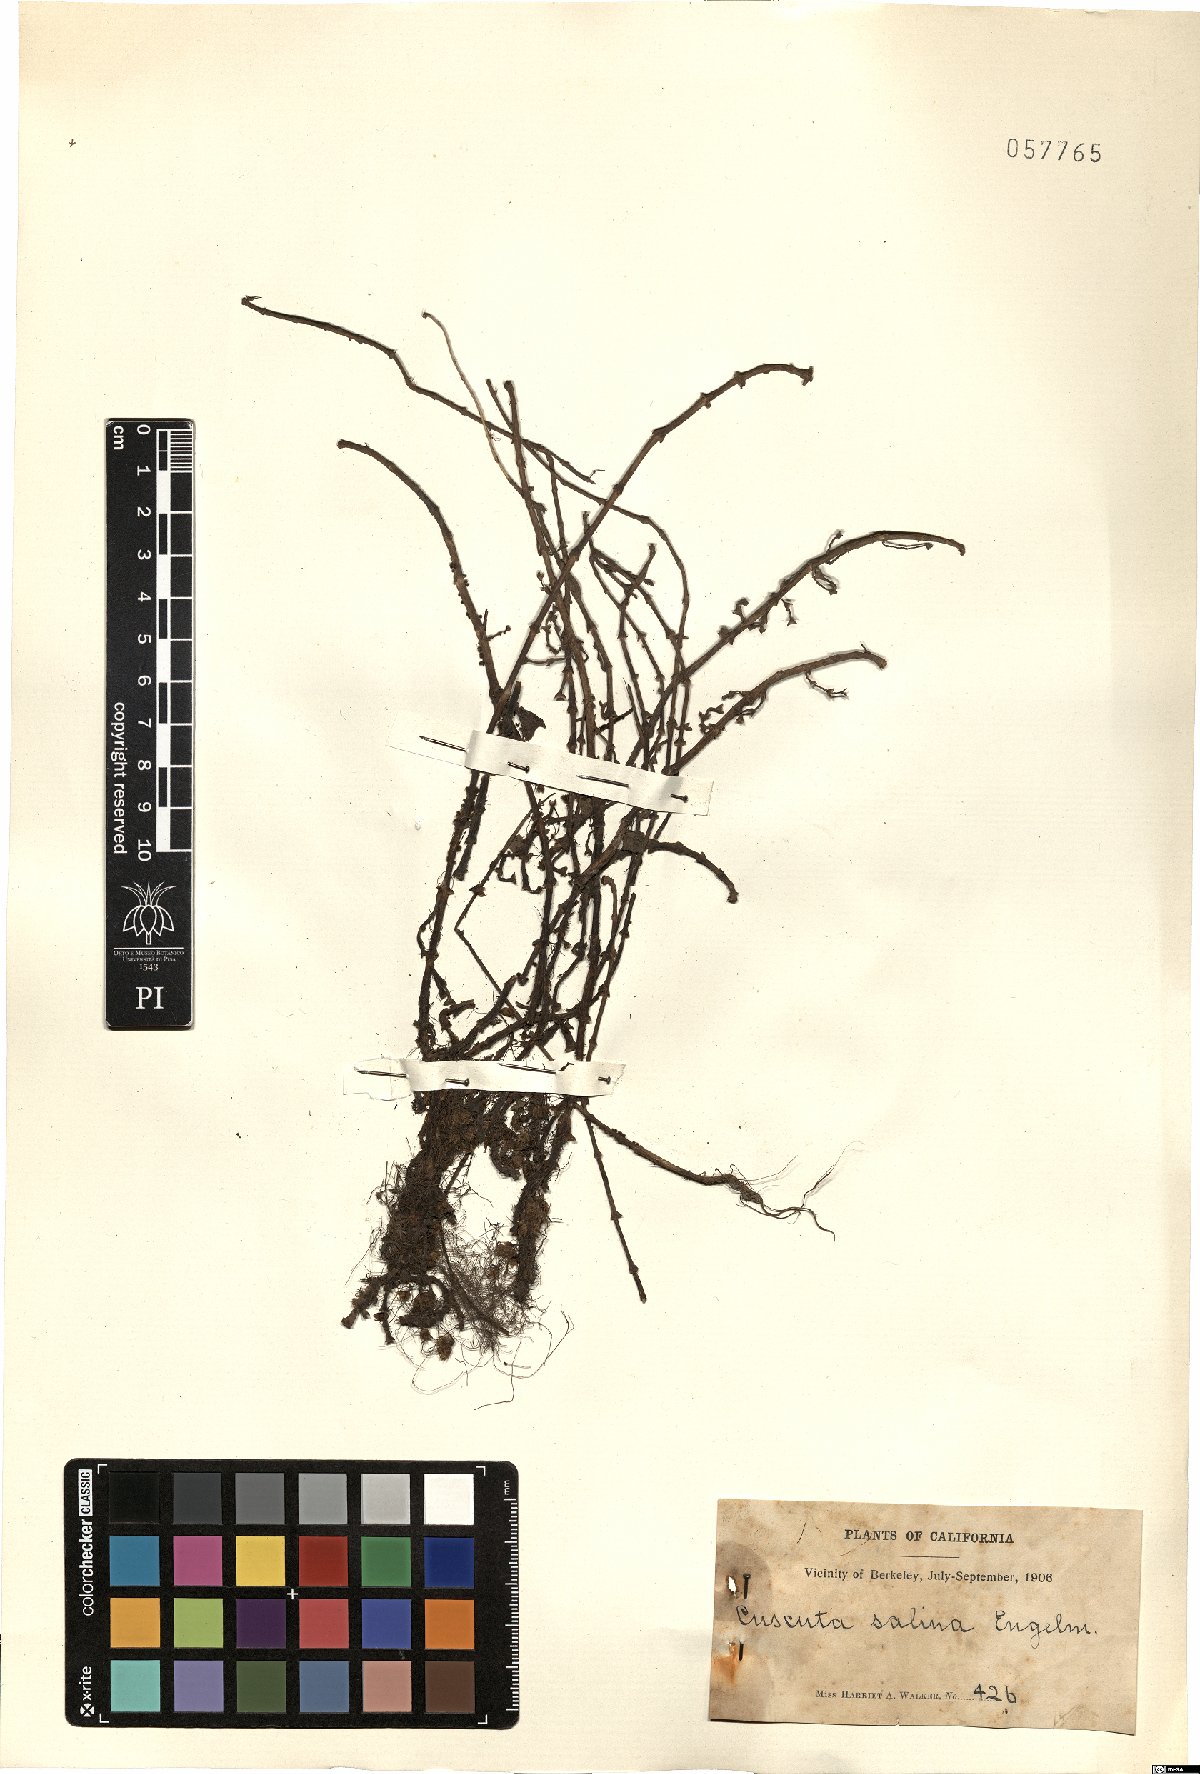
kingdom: Plantae
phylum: Tracheophyta
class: Magnoliopsida
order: Solanales
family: Convolvulaceae
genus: Cuscuta
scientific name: Cuscuta salina
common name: Goldenthread
